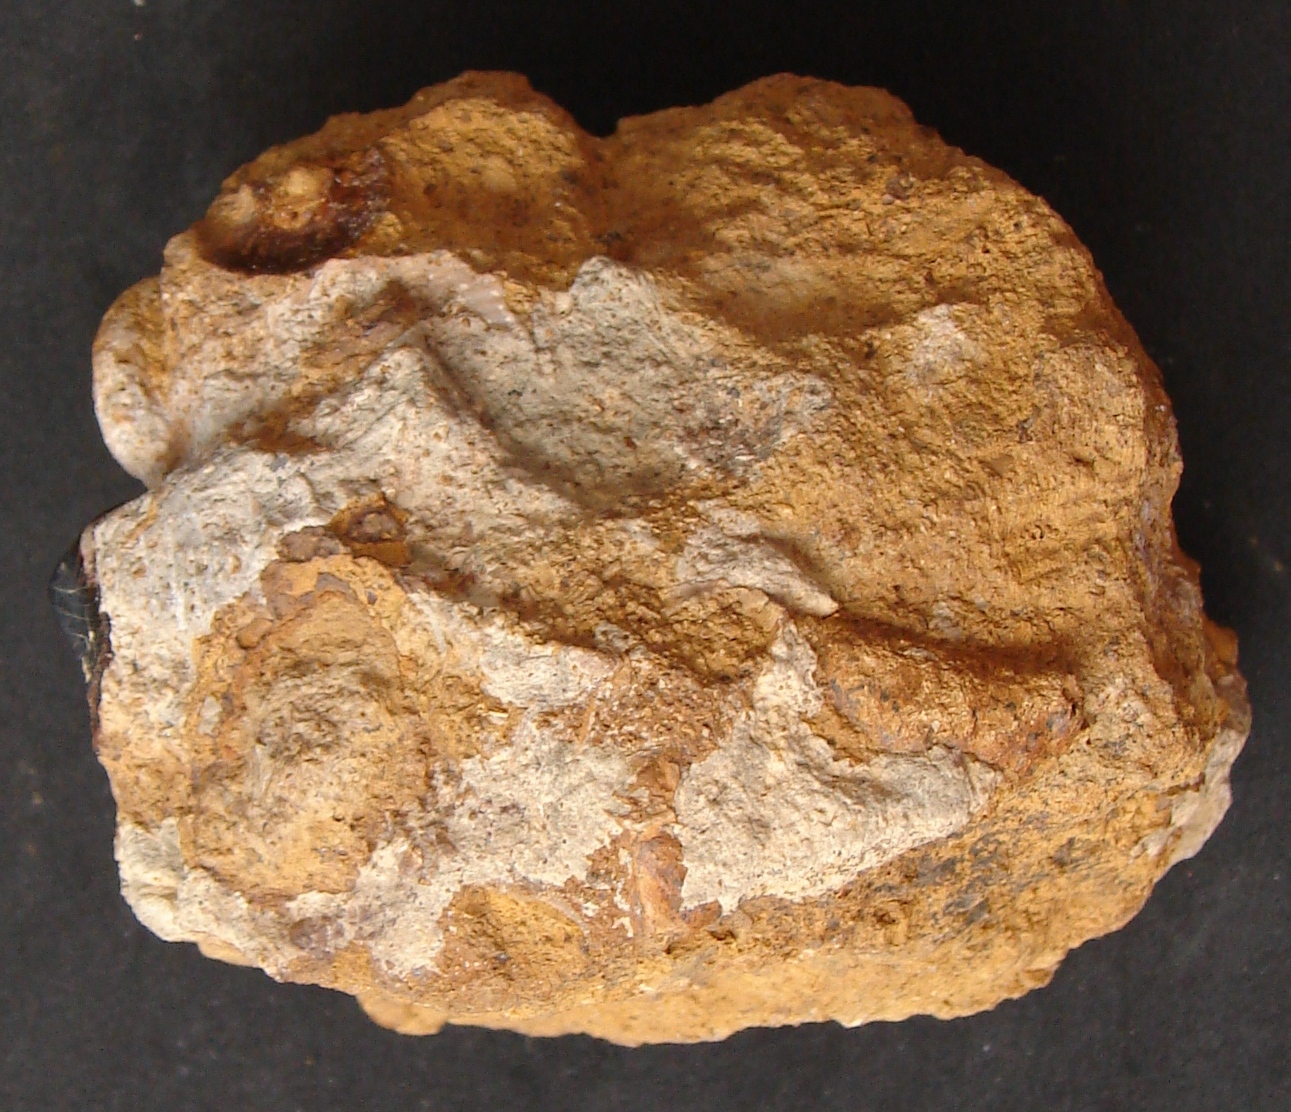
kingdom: Animalia
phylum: Chordata
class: Elasmobranchii
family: Acrodontidae
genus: Asteracanthus
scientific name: Asteracanthus
